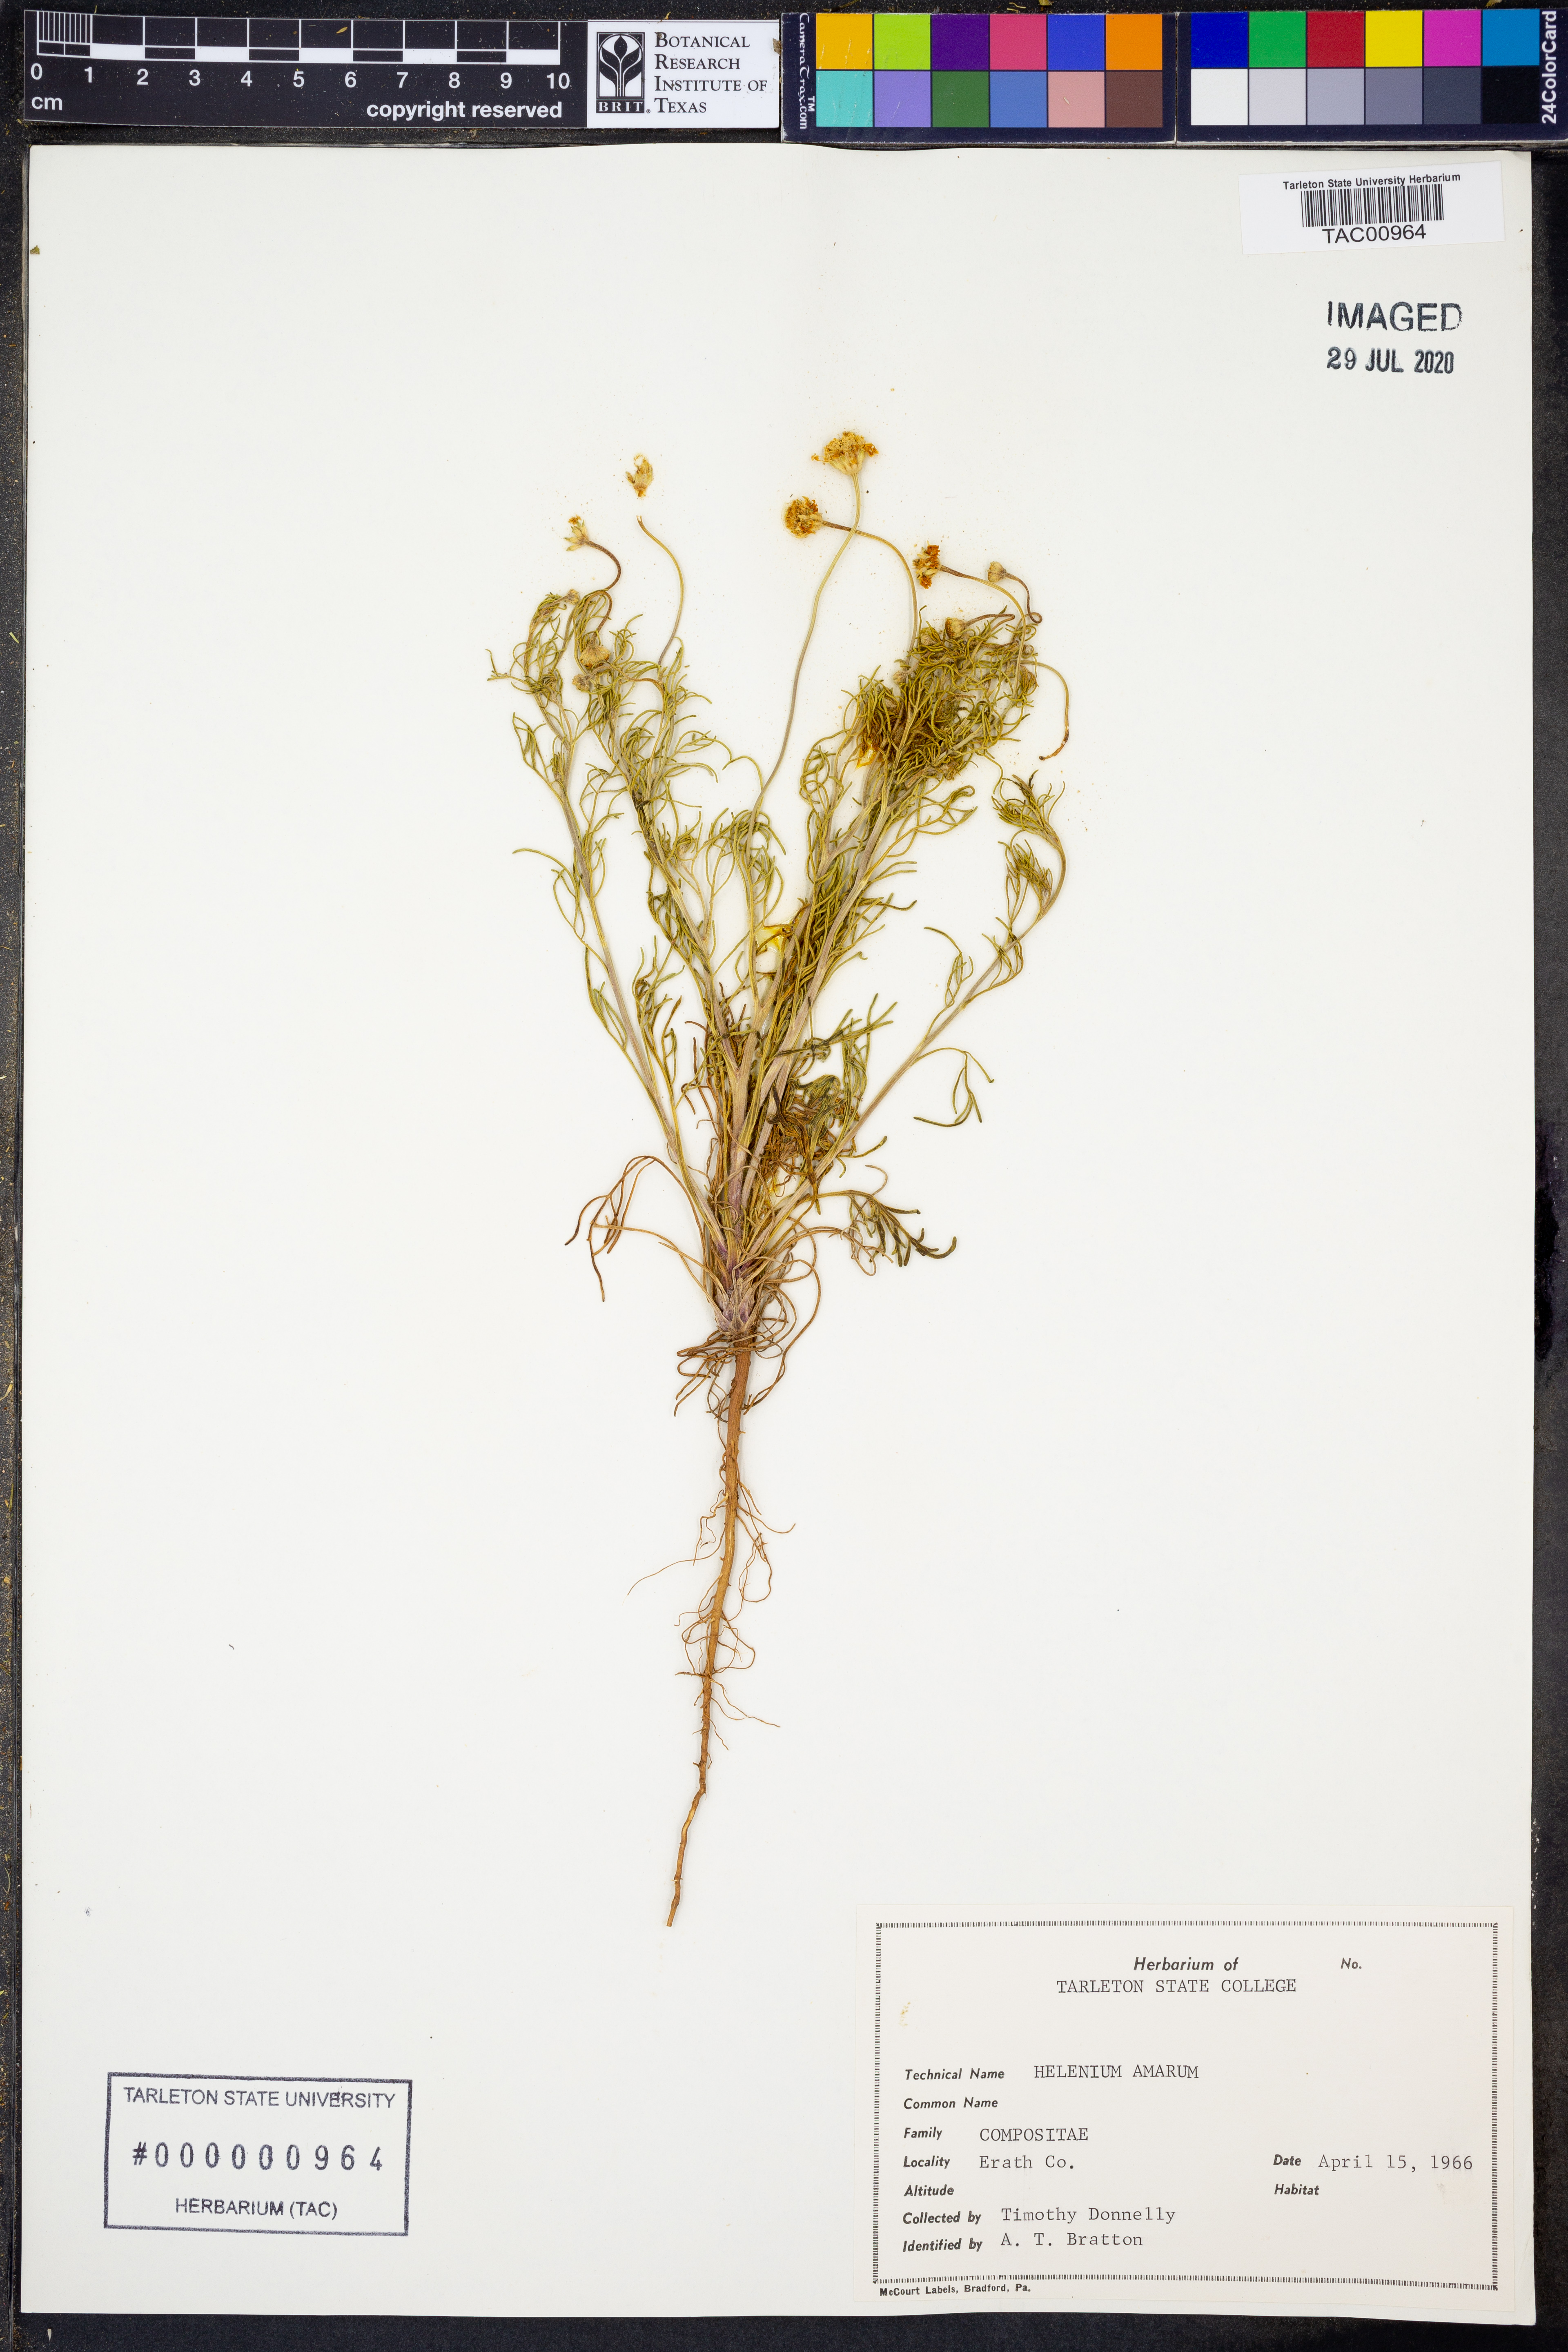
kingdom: Plantae
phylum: Tracheophyta
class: Magnoliopsida
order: Asterales
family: Asteraceae
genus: Helenium
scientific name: Helenium amarum
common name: Bitter sneezeweed
